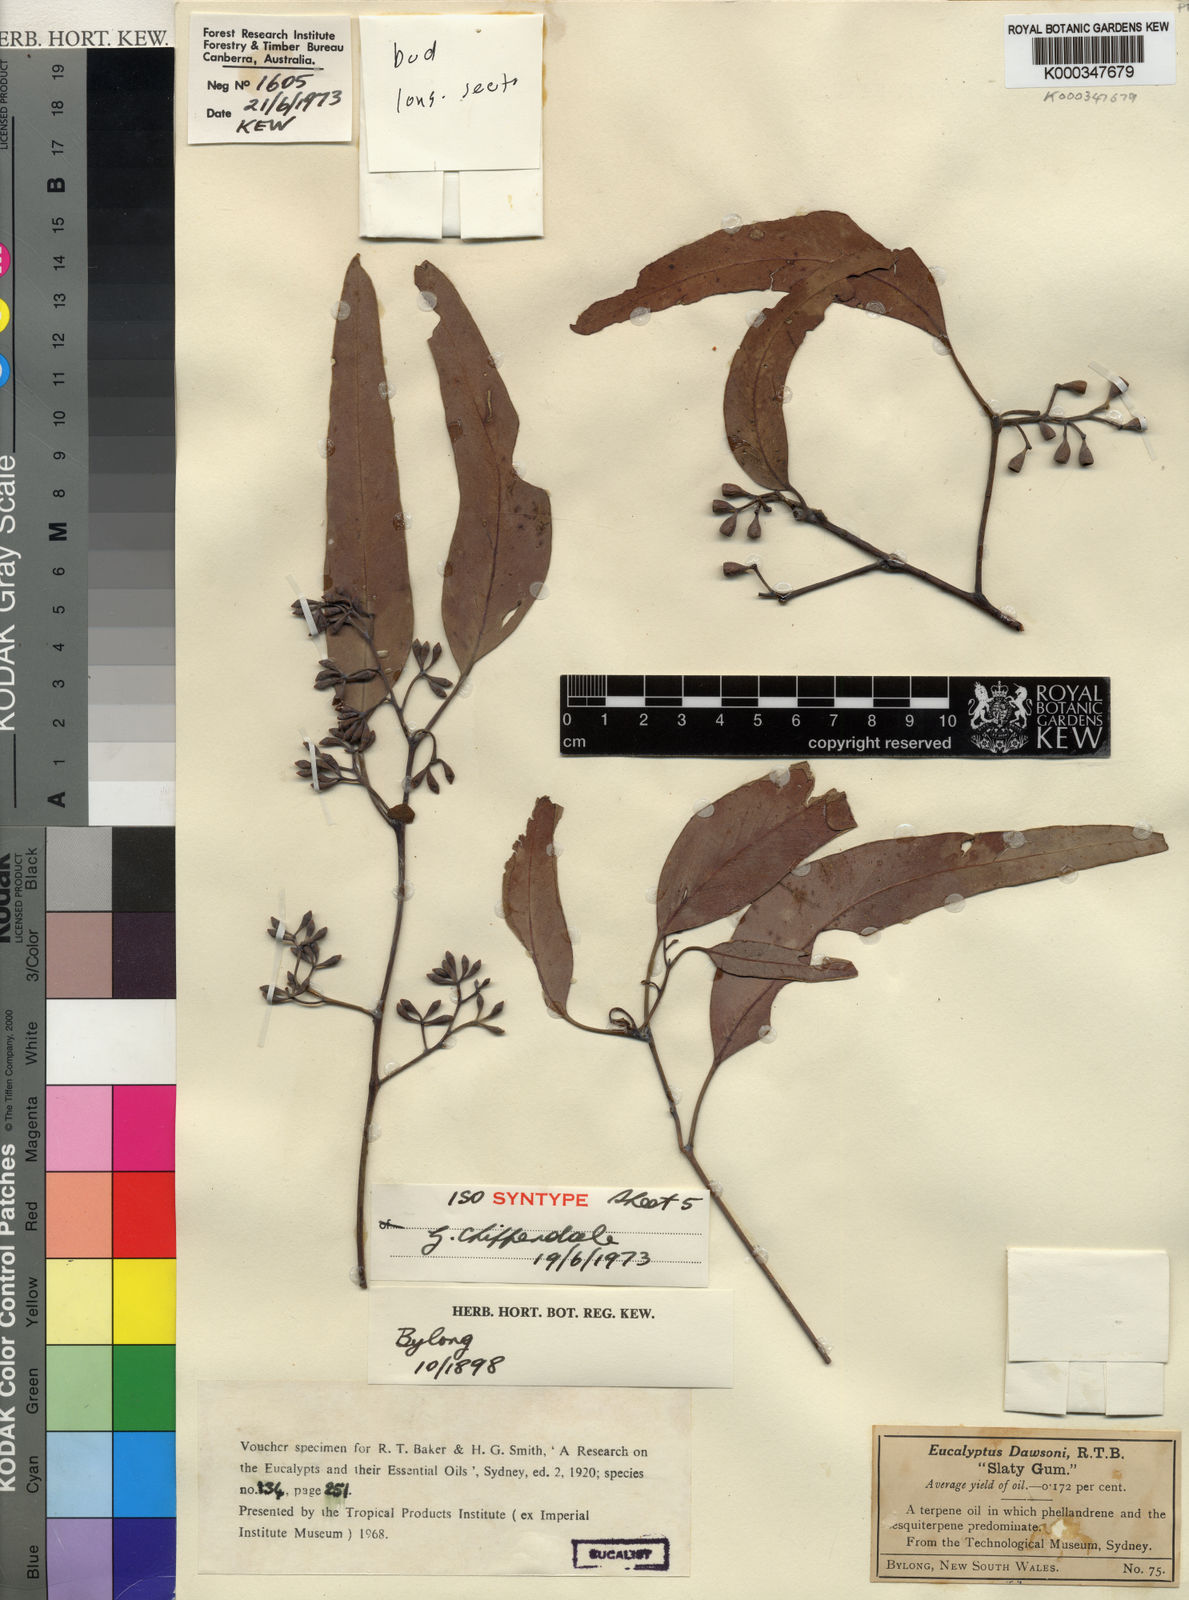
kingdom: Plantae
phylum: Tracheophyta
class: Magnoliopsida
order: Myrtales
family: Myrtaceae
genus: Eucalyptus
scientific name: Eucalyptus dawsonii
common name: Slaty-box
